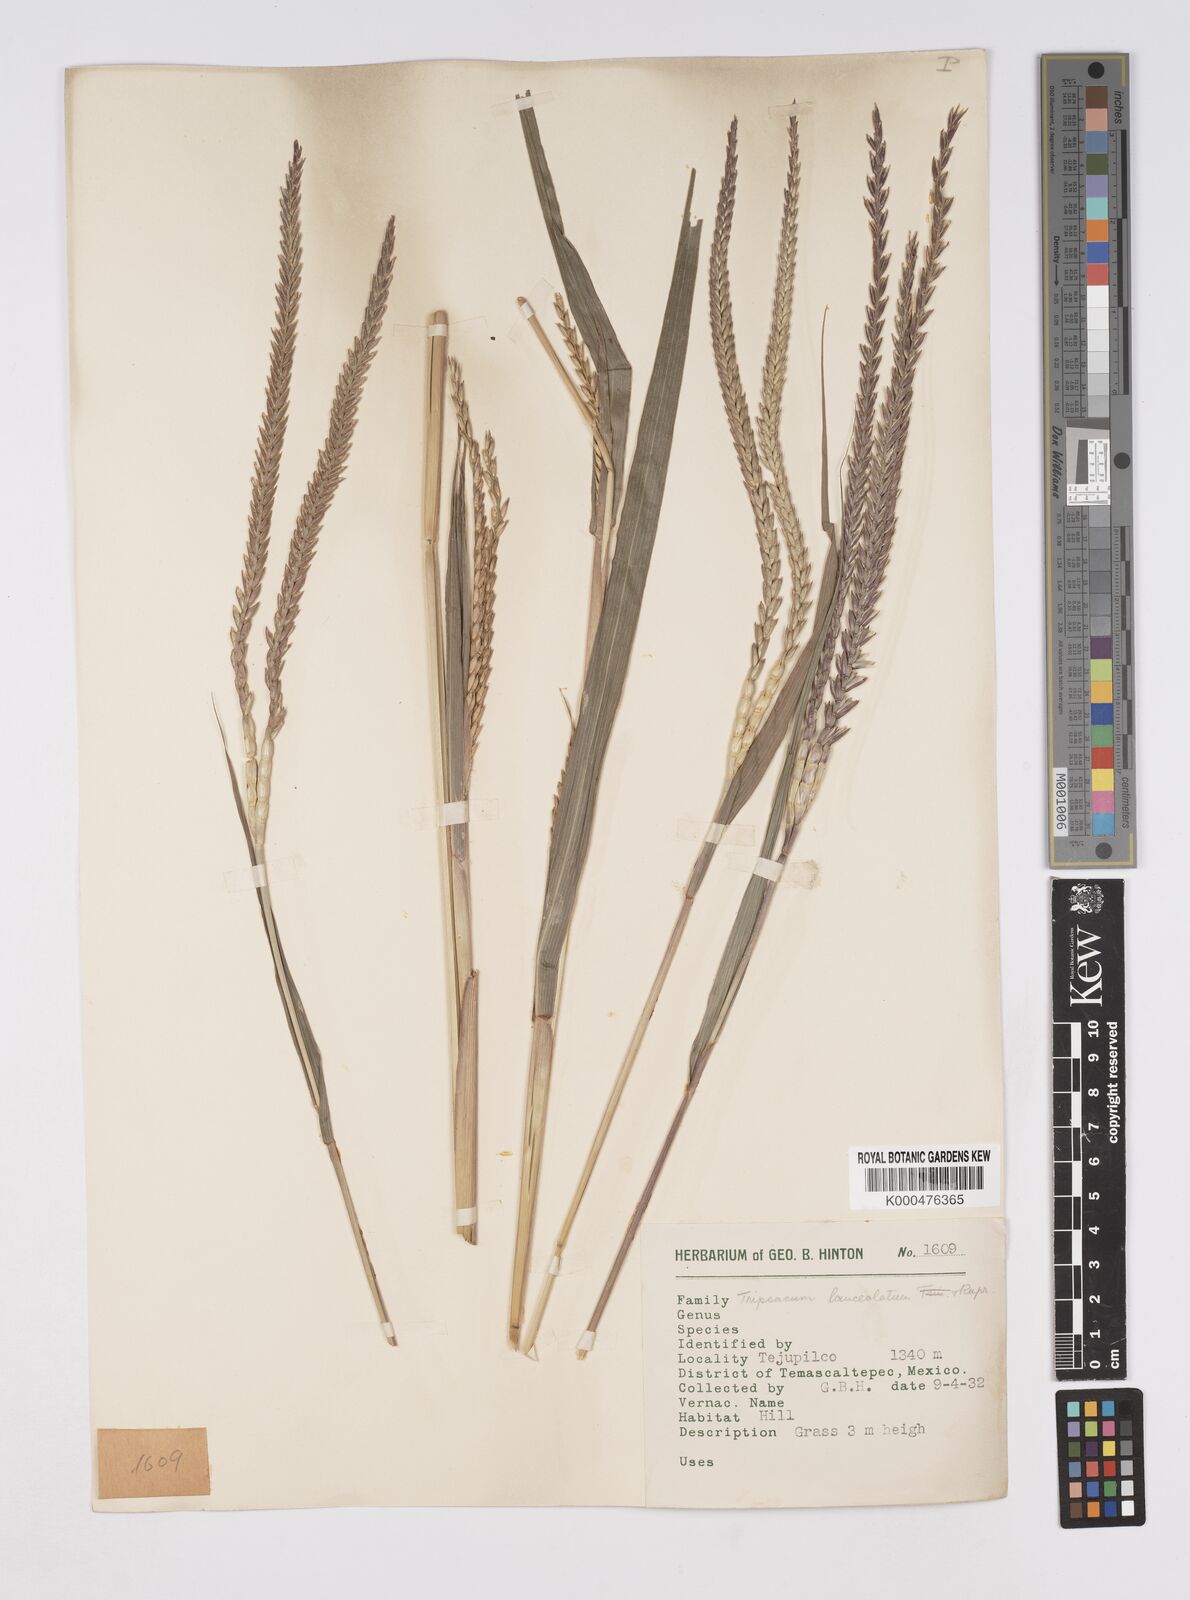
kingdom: Plantae
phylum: Tracheophyta
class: Liliopsida
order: Poales
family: Poaceae
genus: Tripsacum
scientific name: Tripsacum australe
